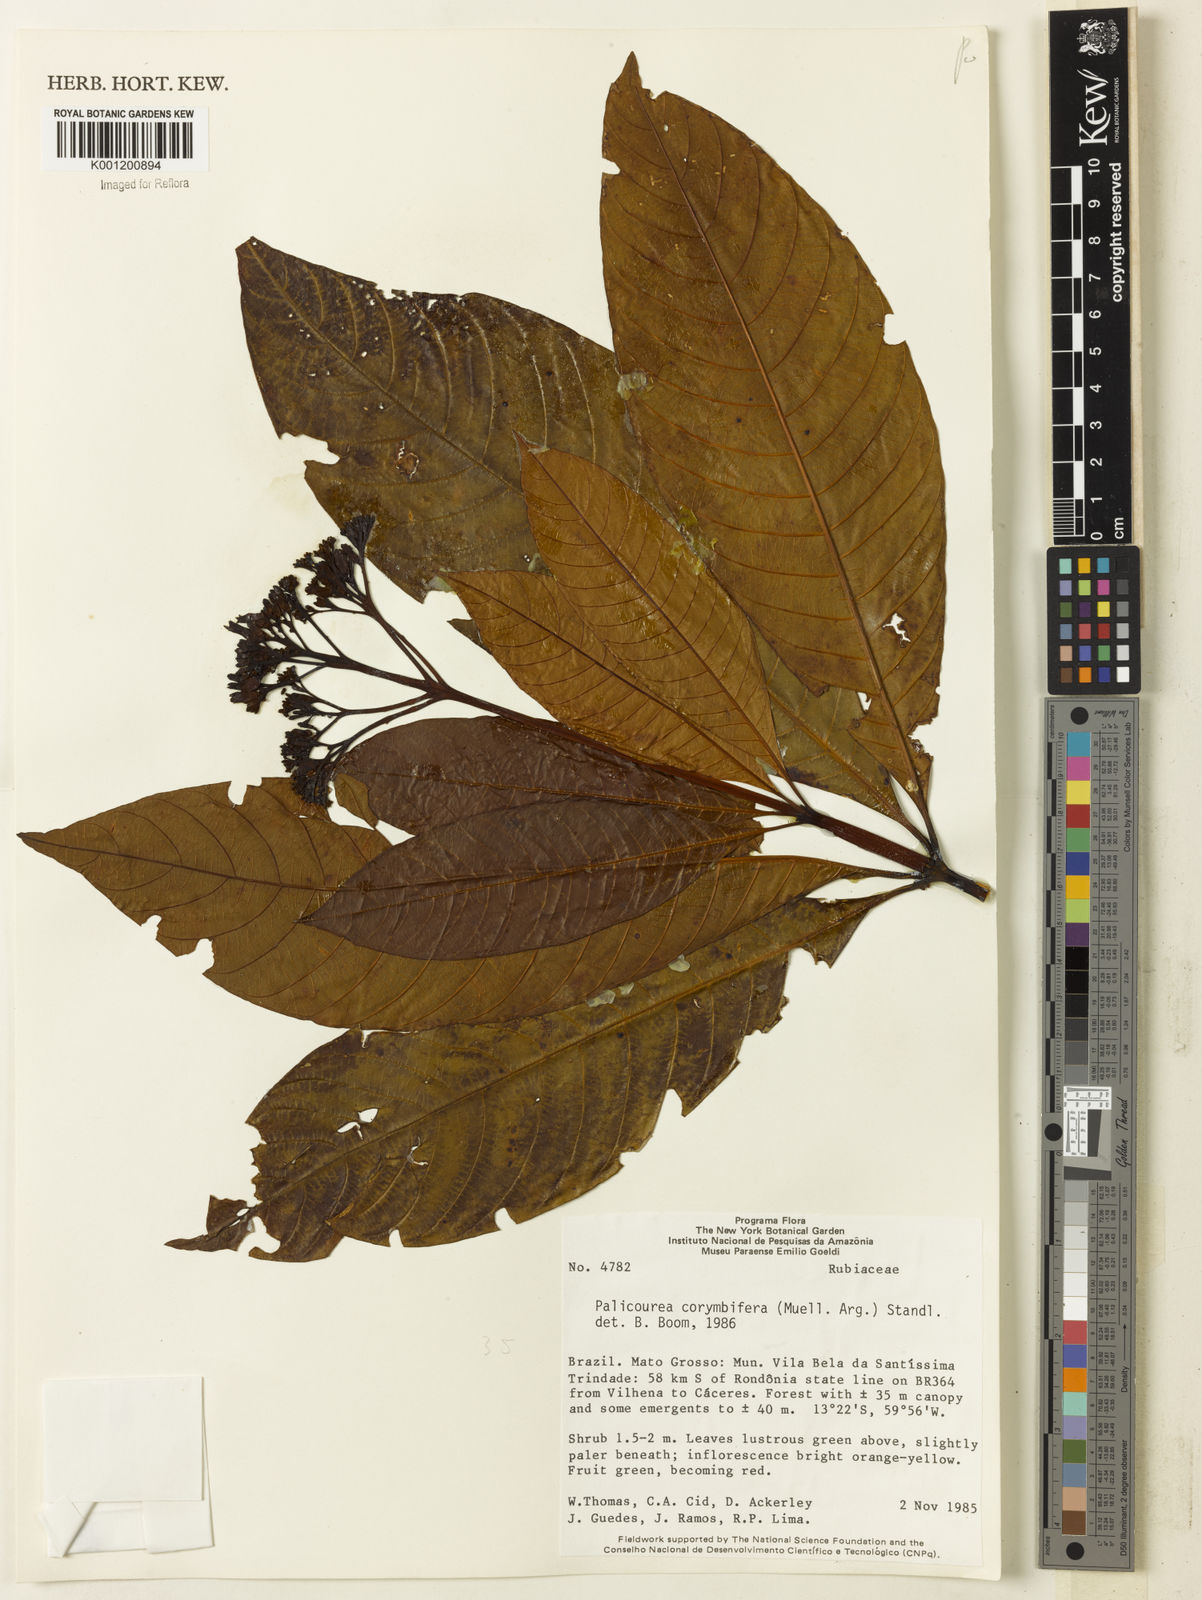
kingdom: Plantae
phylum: Tracheophyta
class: Magnoliopsida
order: Gentianales
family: Rubiaceae
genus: Palicourea
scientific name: Palicourea
